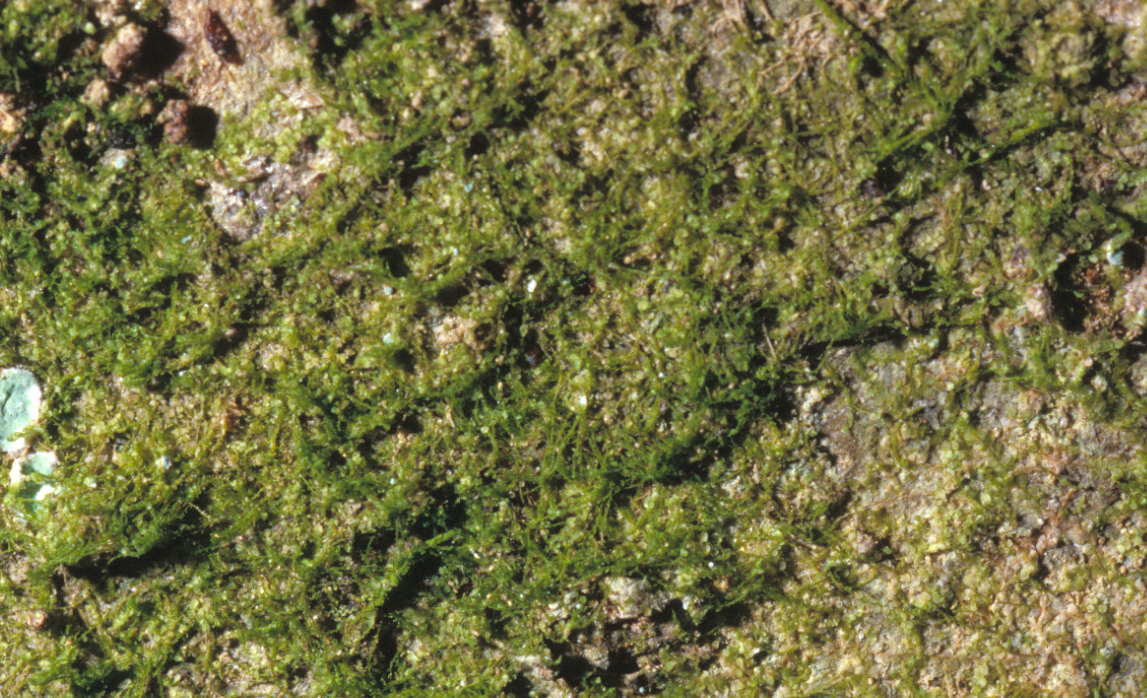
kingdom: Plantae
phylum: Marchantiophyta
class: Jungermanniopsida
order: Porellales
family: Lejeuneaceae
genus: Lejeunea
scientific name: Lejeunea flava
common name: Yellow pouncewort
